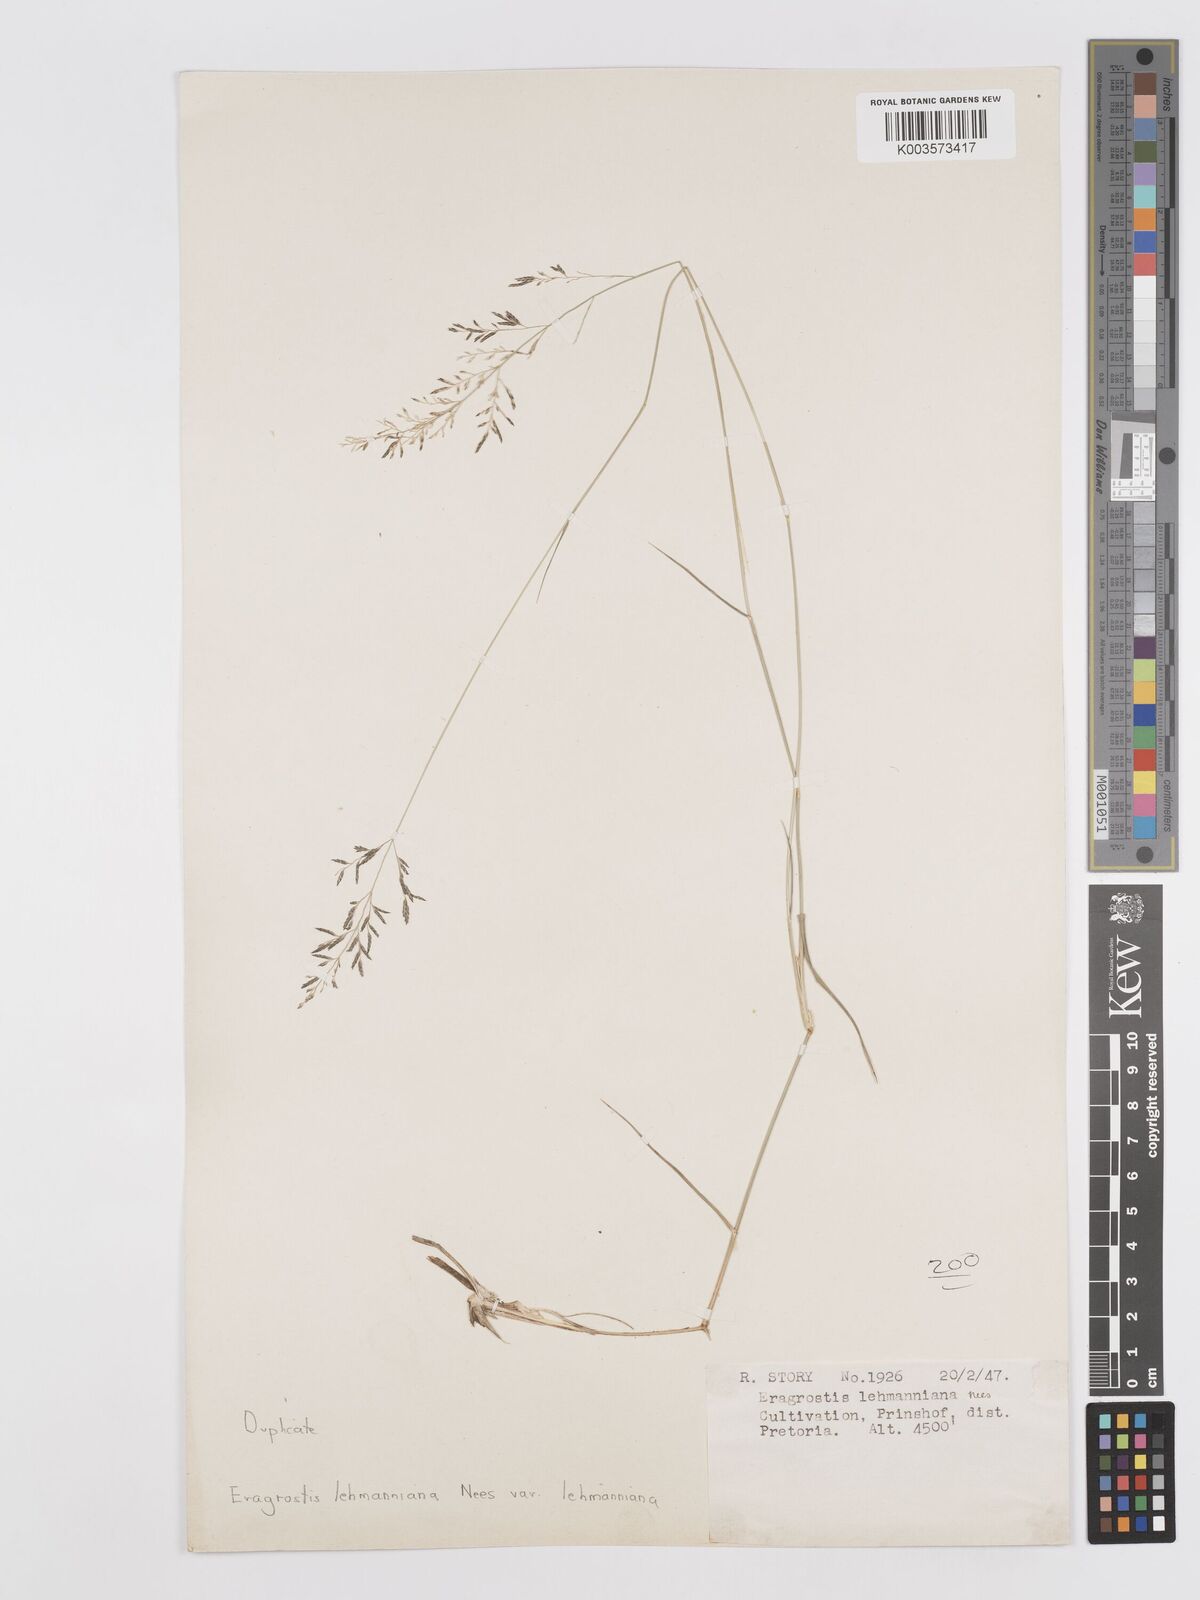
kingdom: Plantae
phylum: Tracheophyta
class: Liliopsida
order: Poales
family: Poaceae
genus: Eragrostis
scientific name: Eragrostis lehmanniana
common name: Lehmann lovegrass
